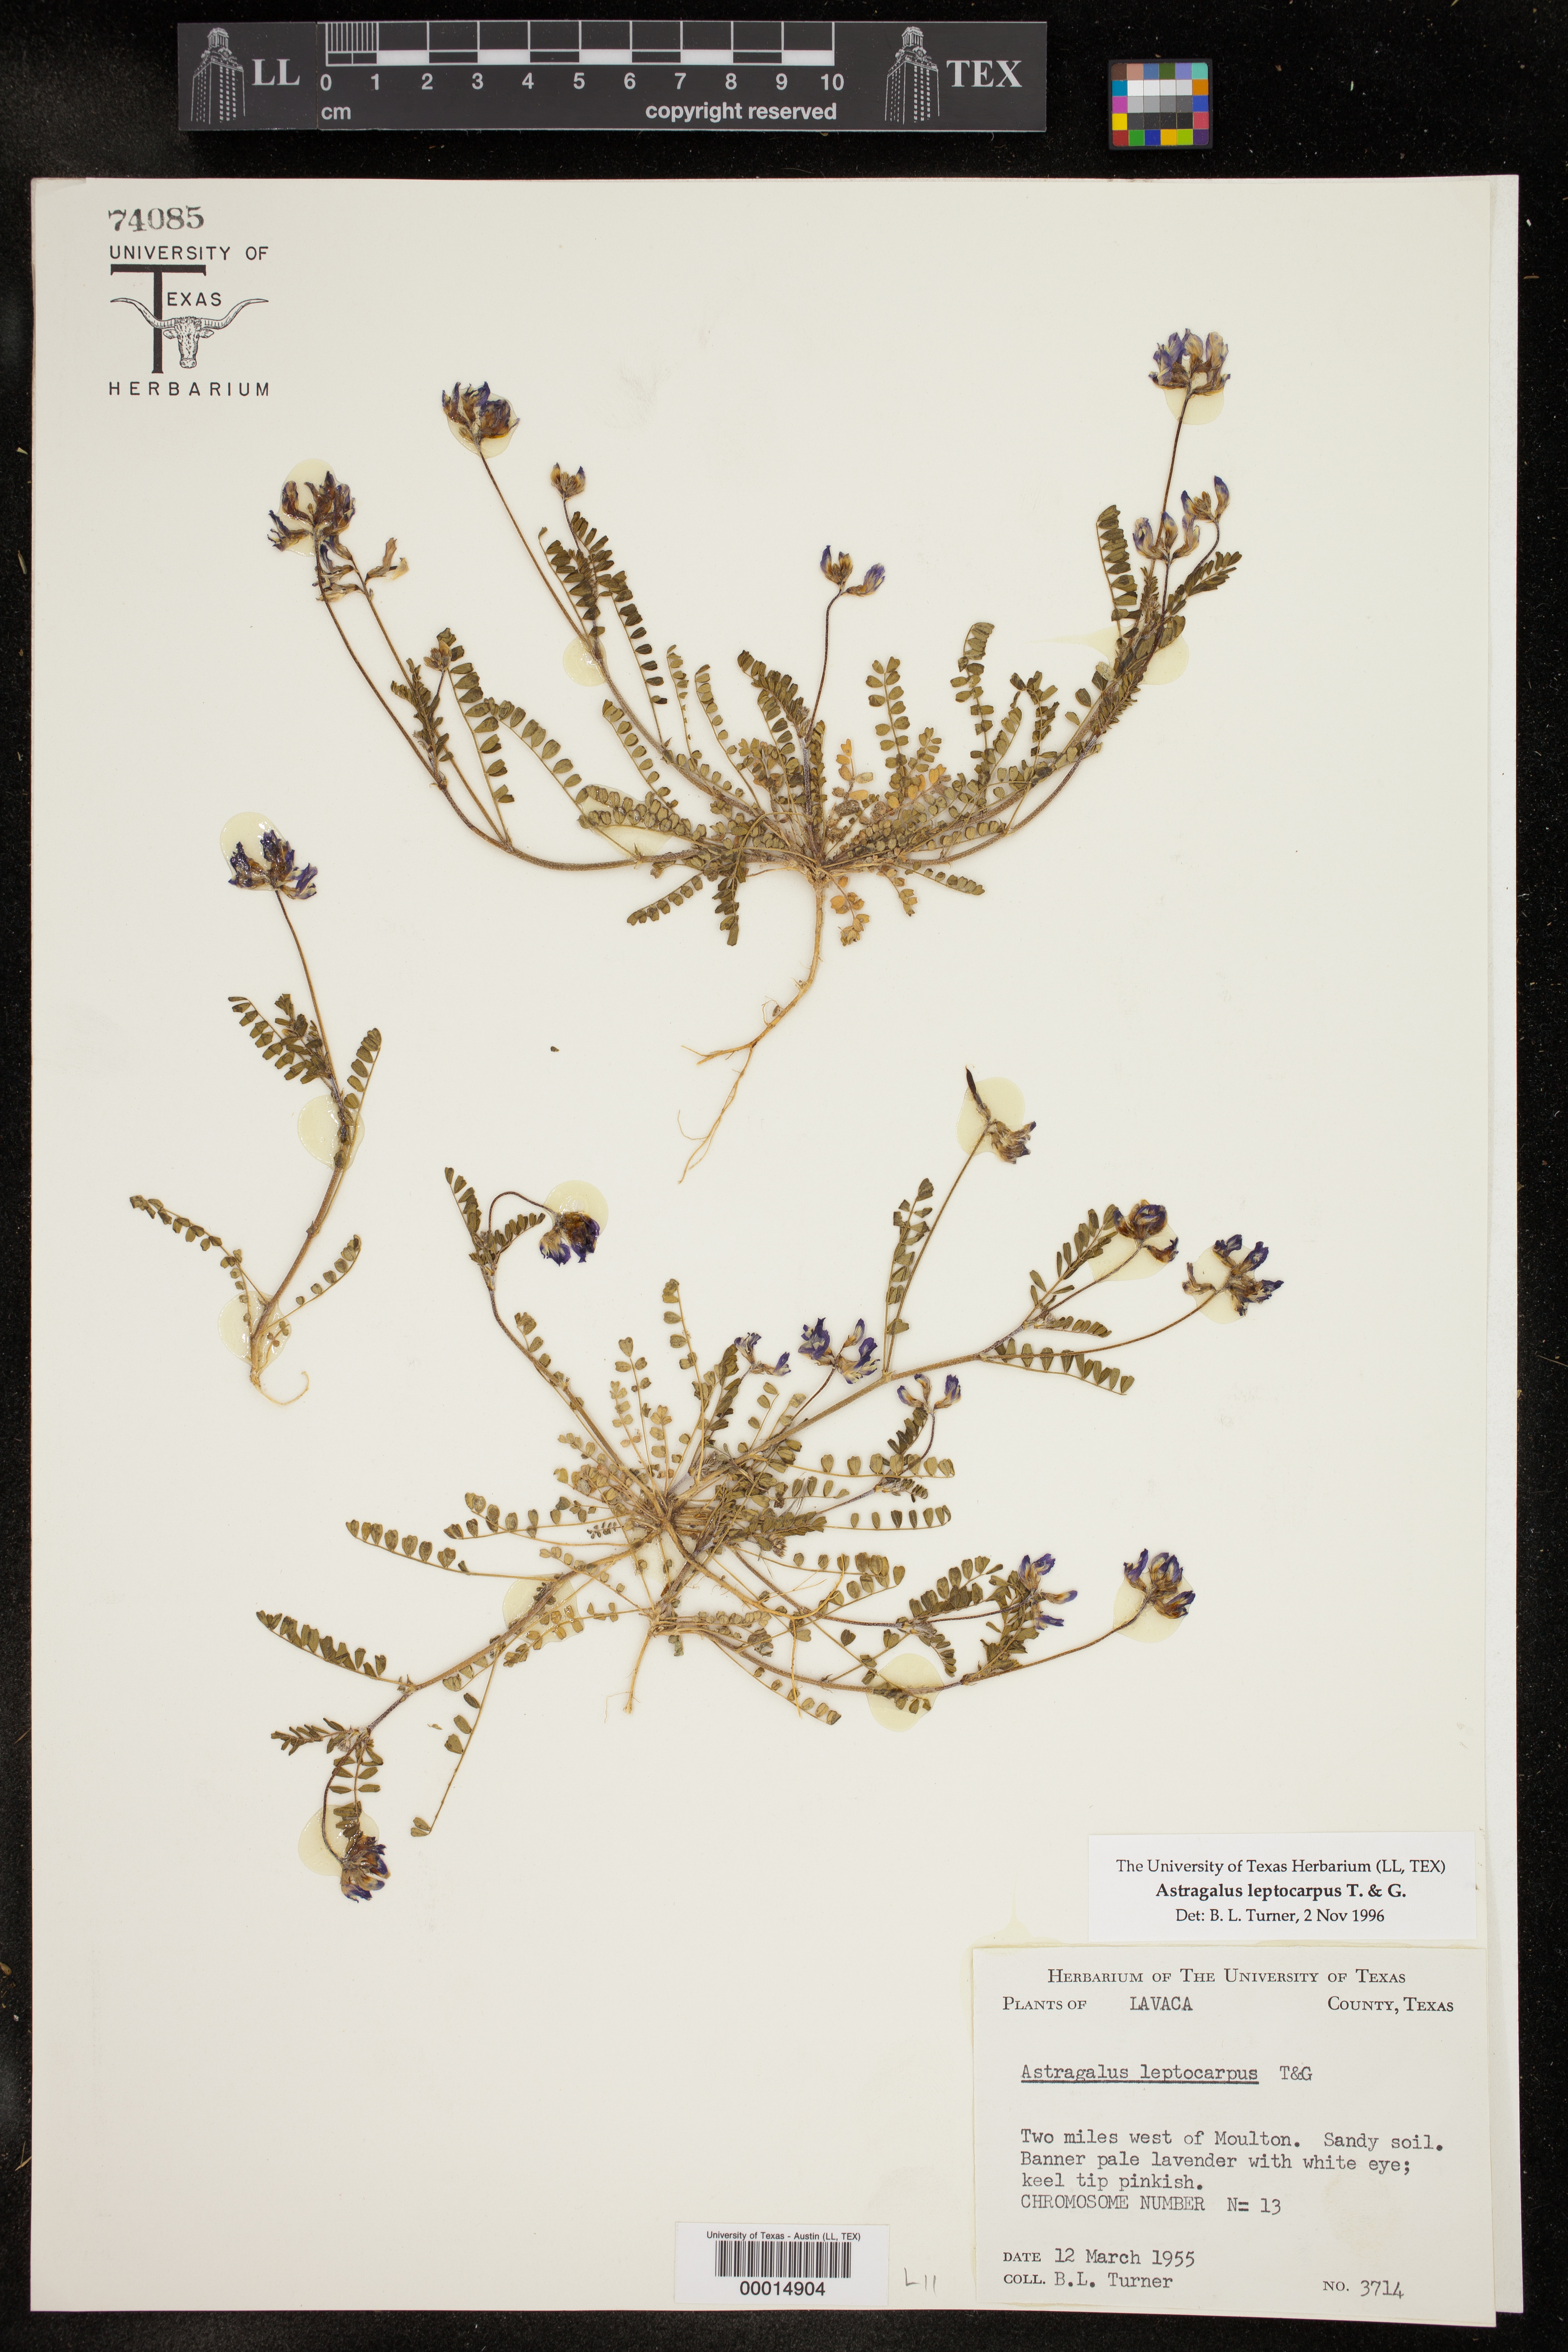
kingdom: Plantae
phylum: Tracheophyta
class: Magnoliopsida
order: Fabales
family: Fabaceae
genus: Astragalus
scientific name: Astragalus leptocarpus
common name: Bodkin milk-vetch
